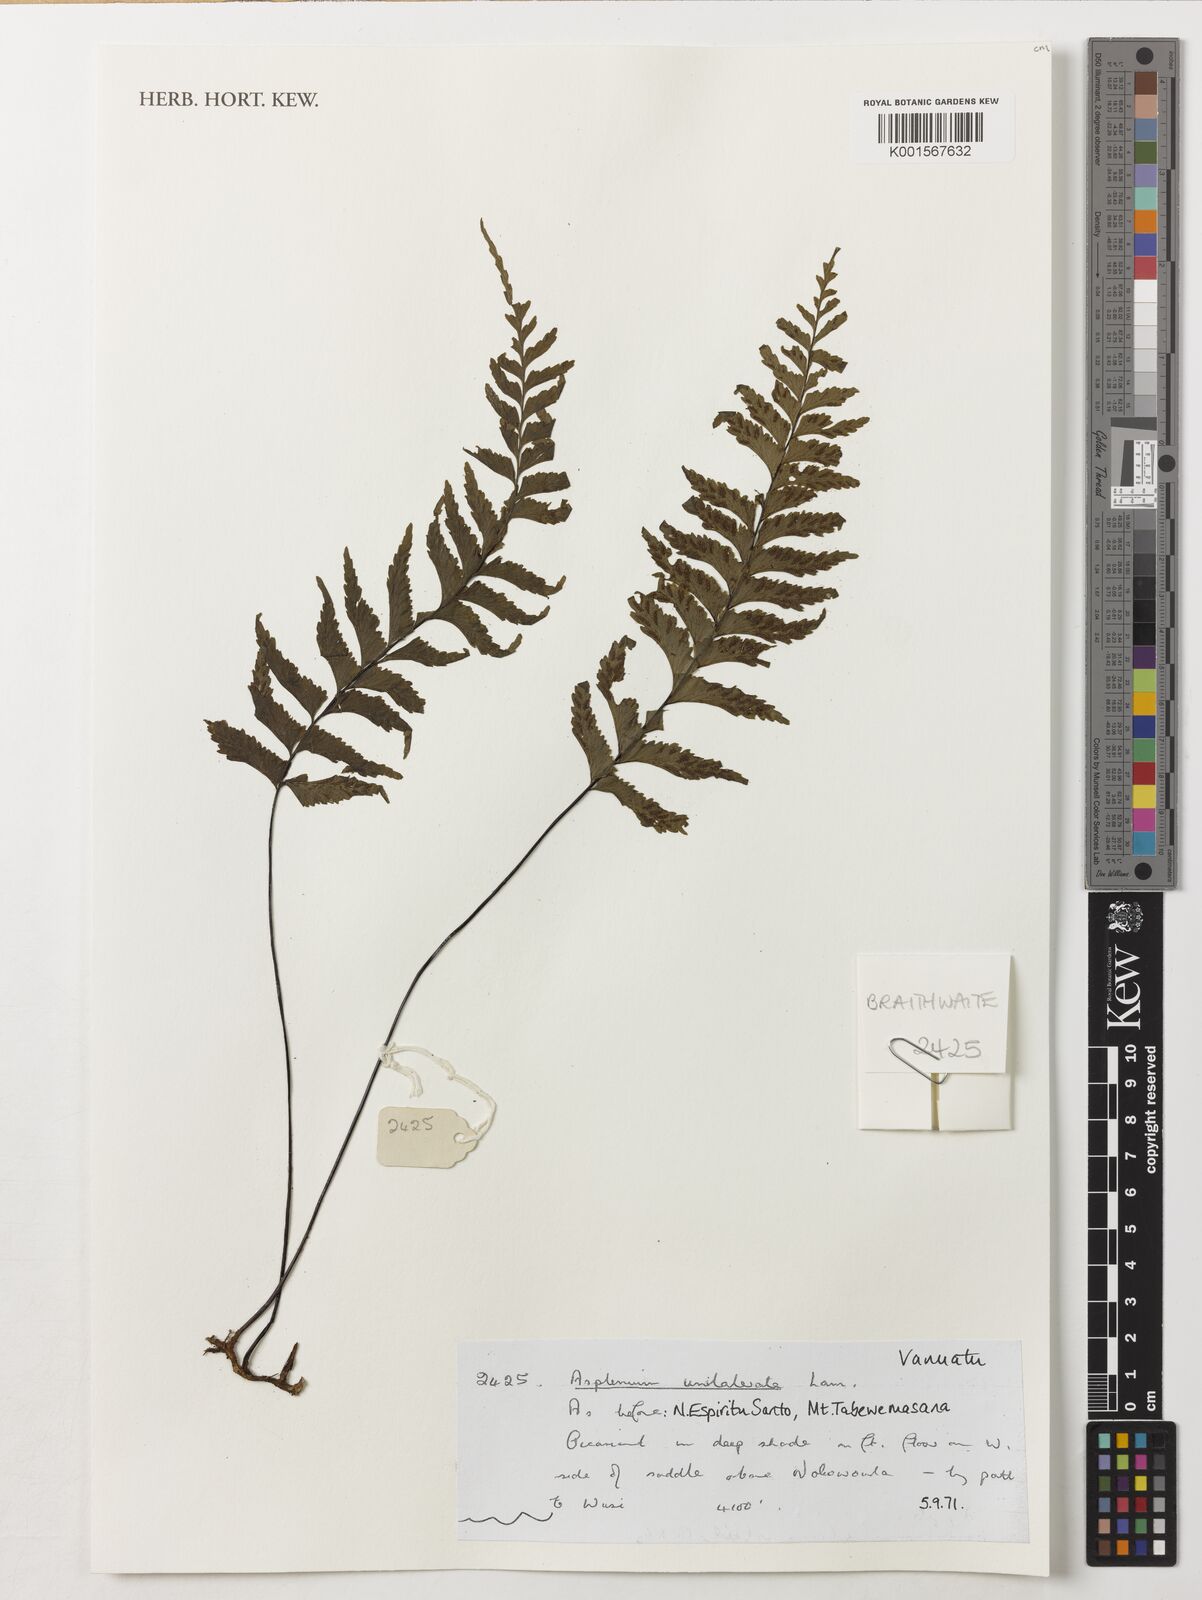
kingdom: Plantae
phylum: Tracheophyta
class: Polypodiopsida
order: Polypodiales
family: Aspleniaceae
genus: Hymenasplenium
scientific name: Hymenasplenium unilaterale
